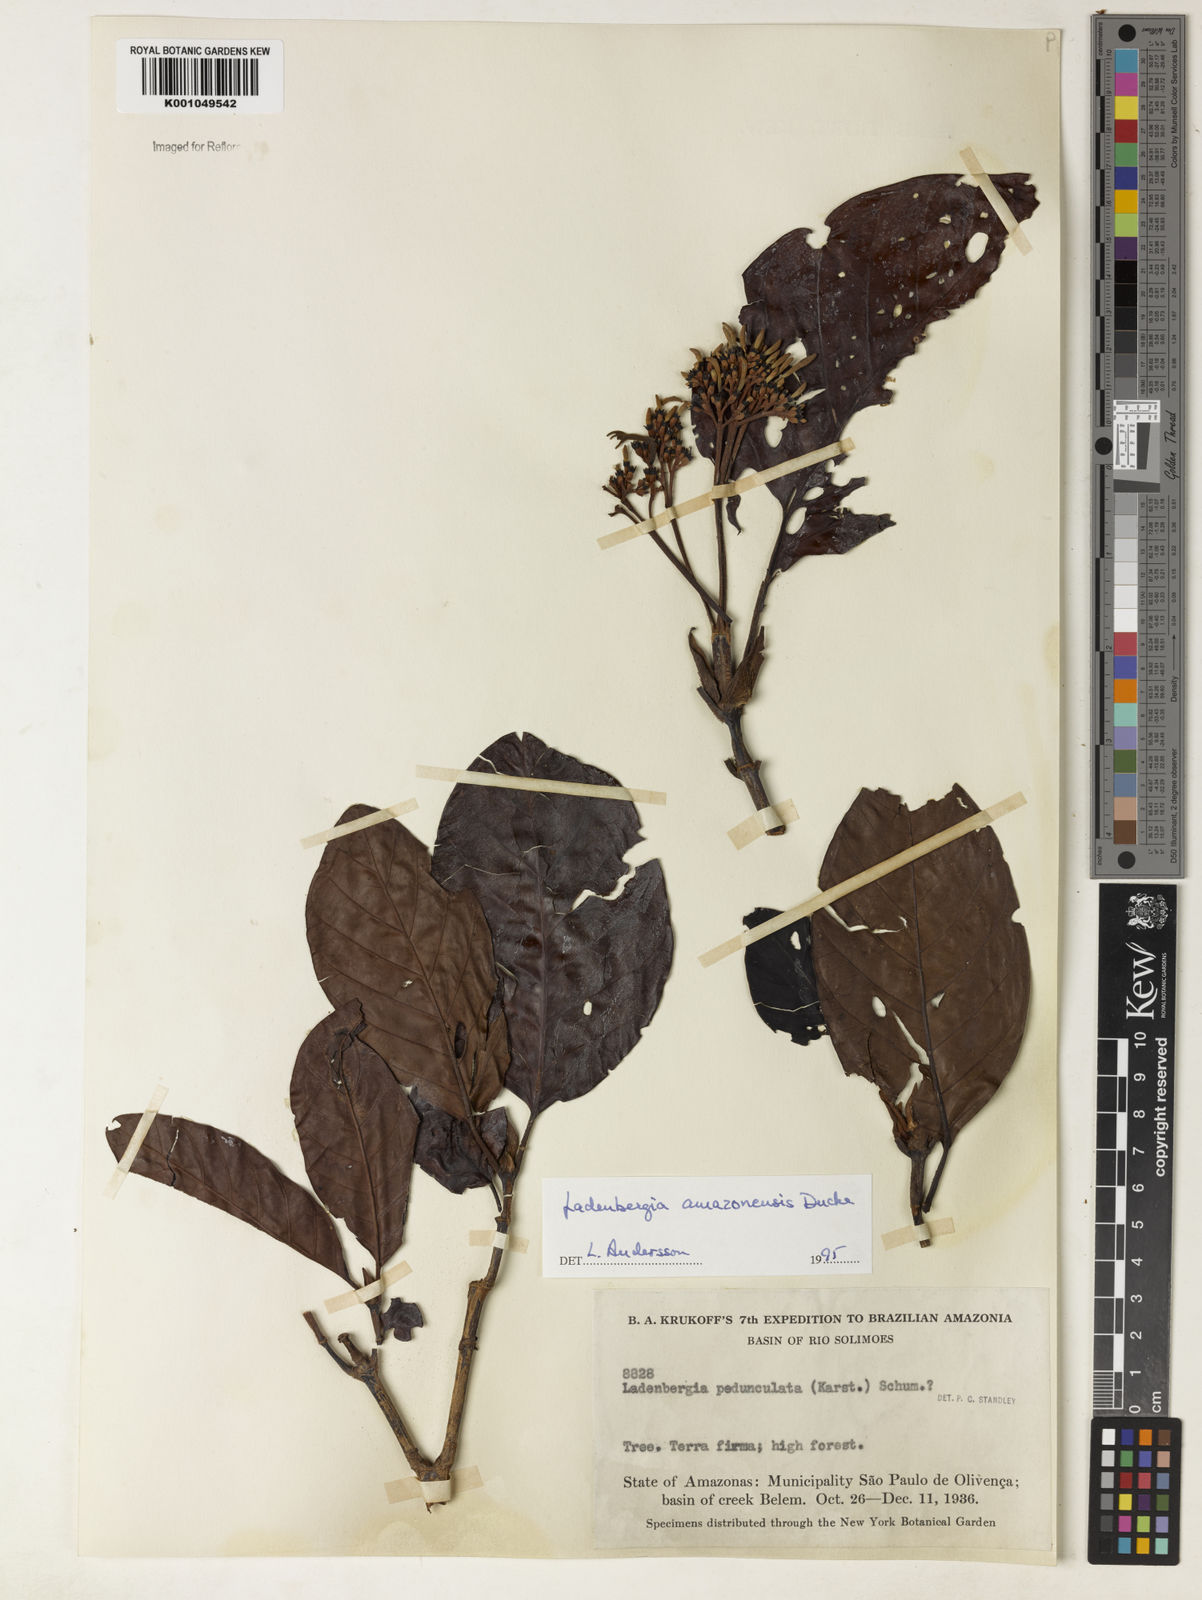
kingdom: Plantae
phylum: Tracheophyta
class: Magnoliopsida
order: Gentianales
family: Rubiaceae
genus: Ladenbergia
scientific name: Ladenbergia amazonensis
